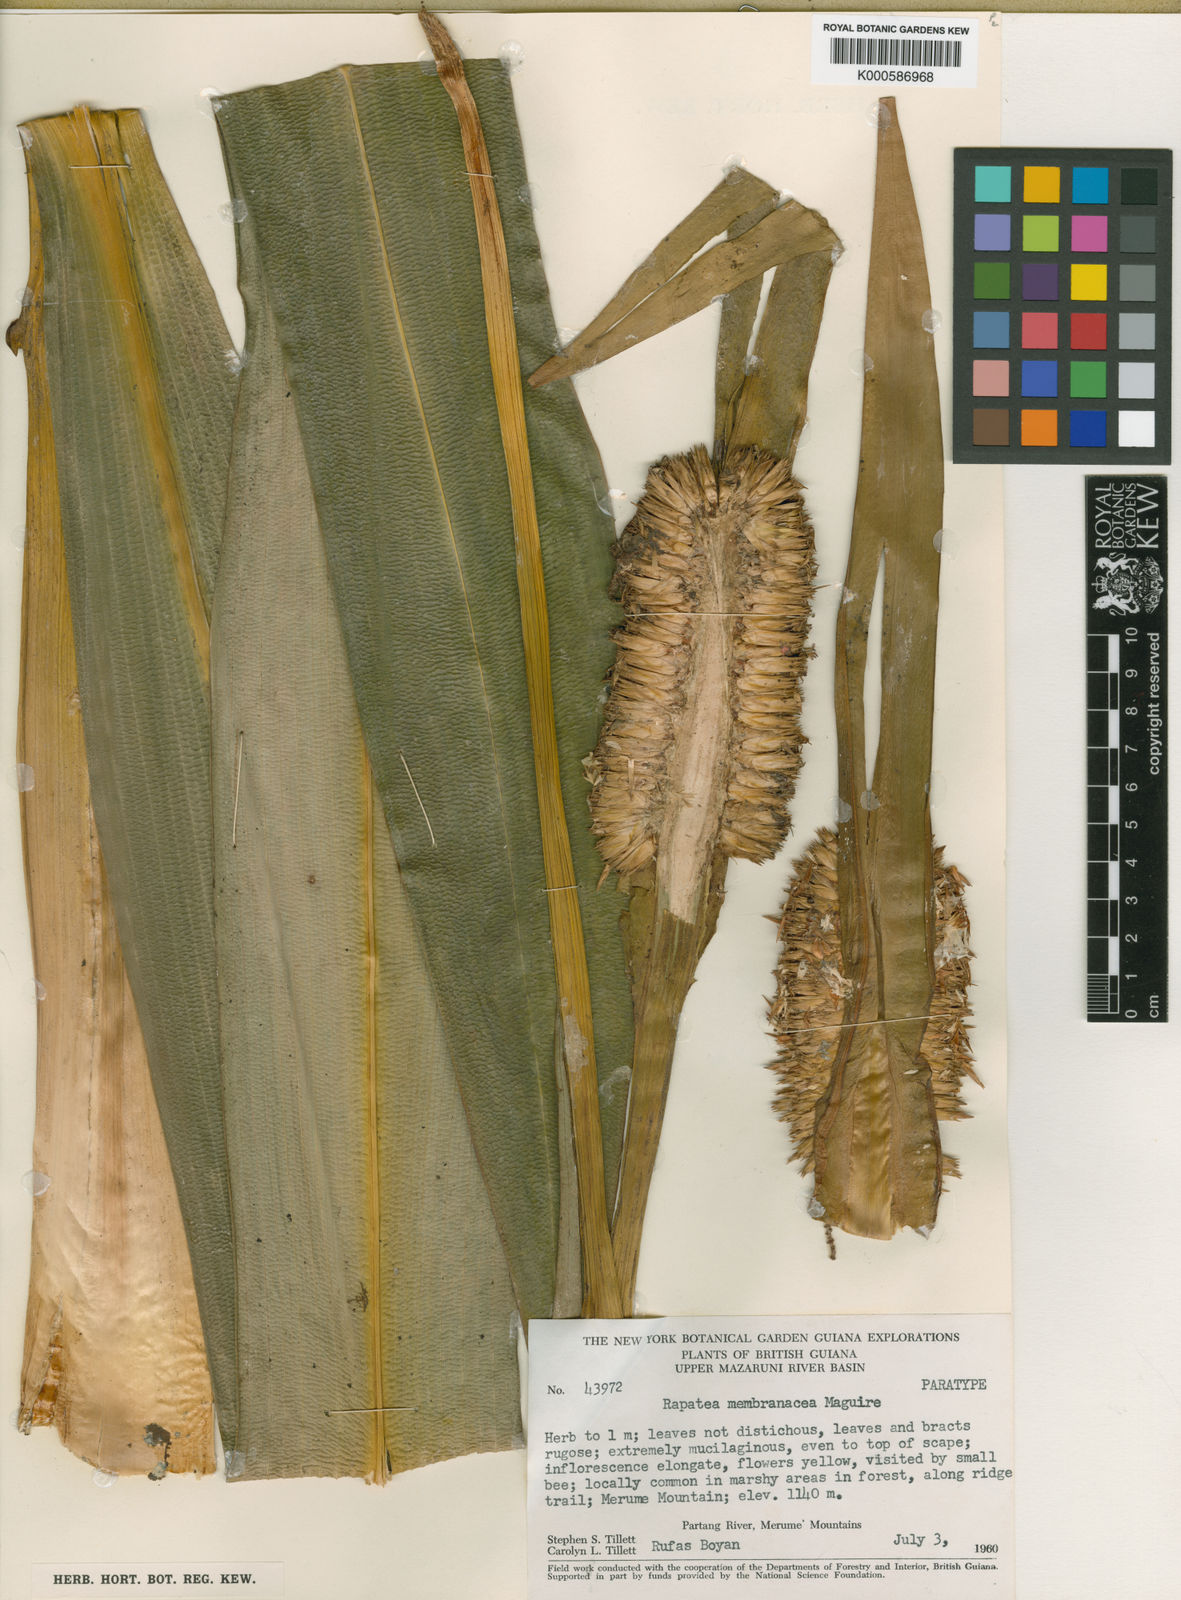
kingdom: Plantae
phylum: Tracheophyta
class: Liliopsida
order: Poales
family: Rapateaceae
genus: Rapatea
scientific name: Rapatea membranacea
